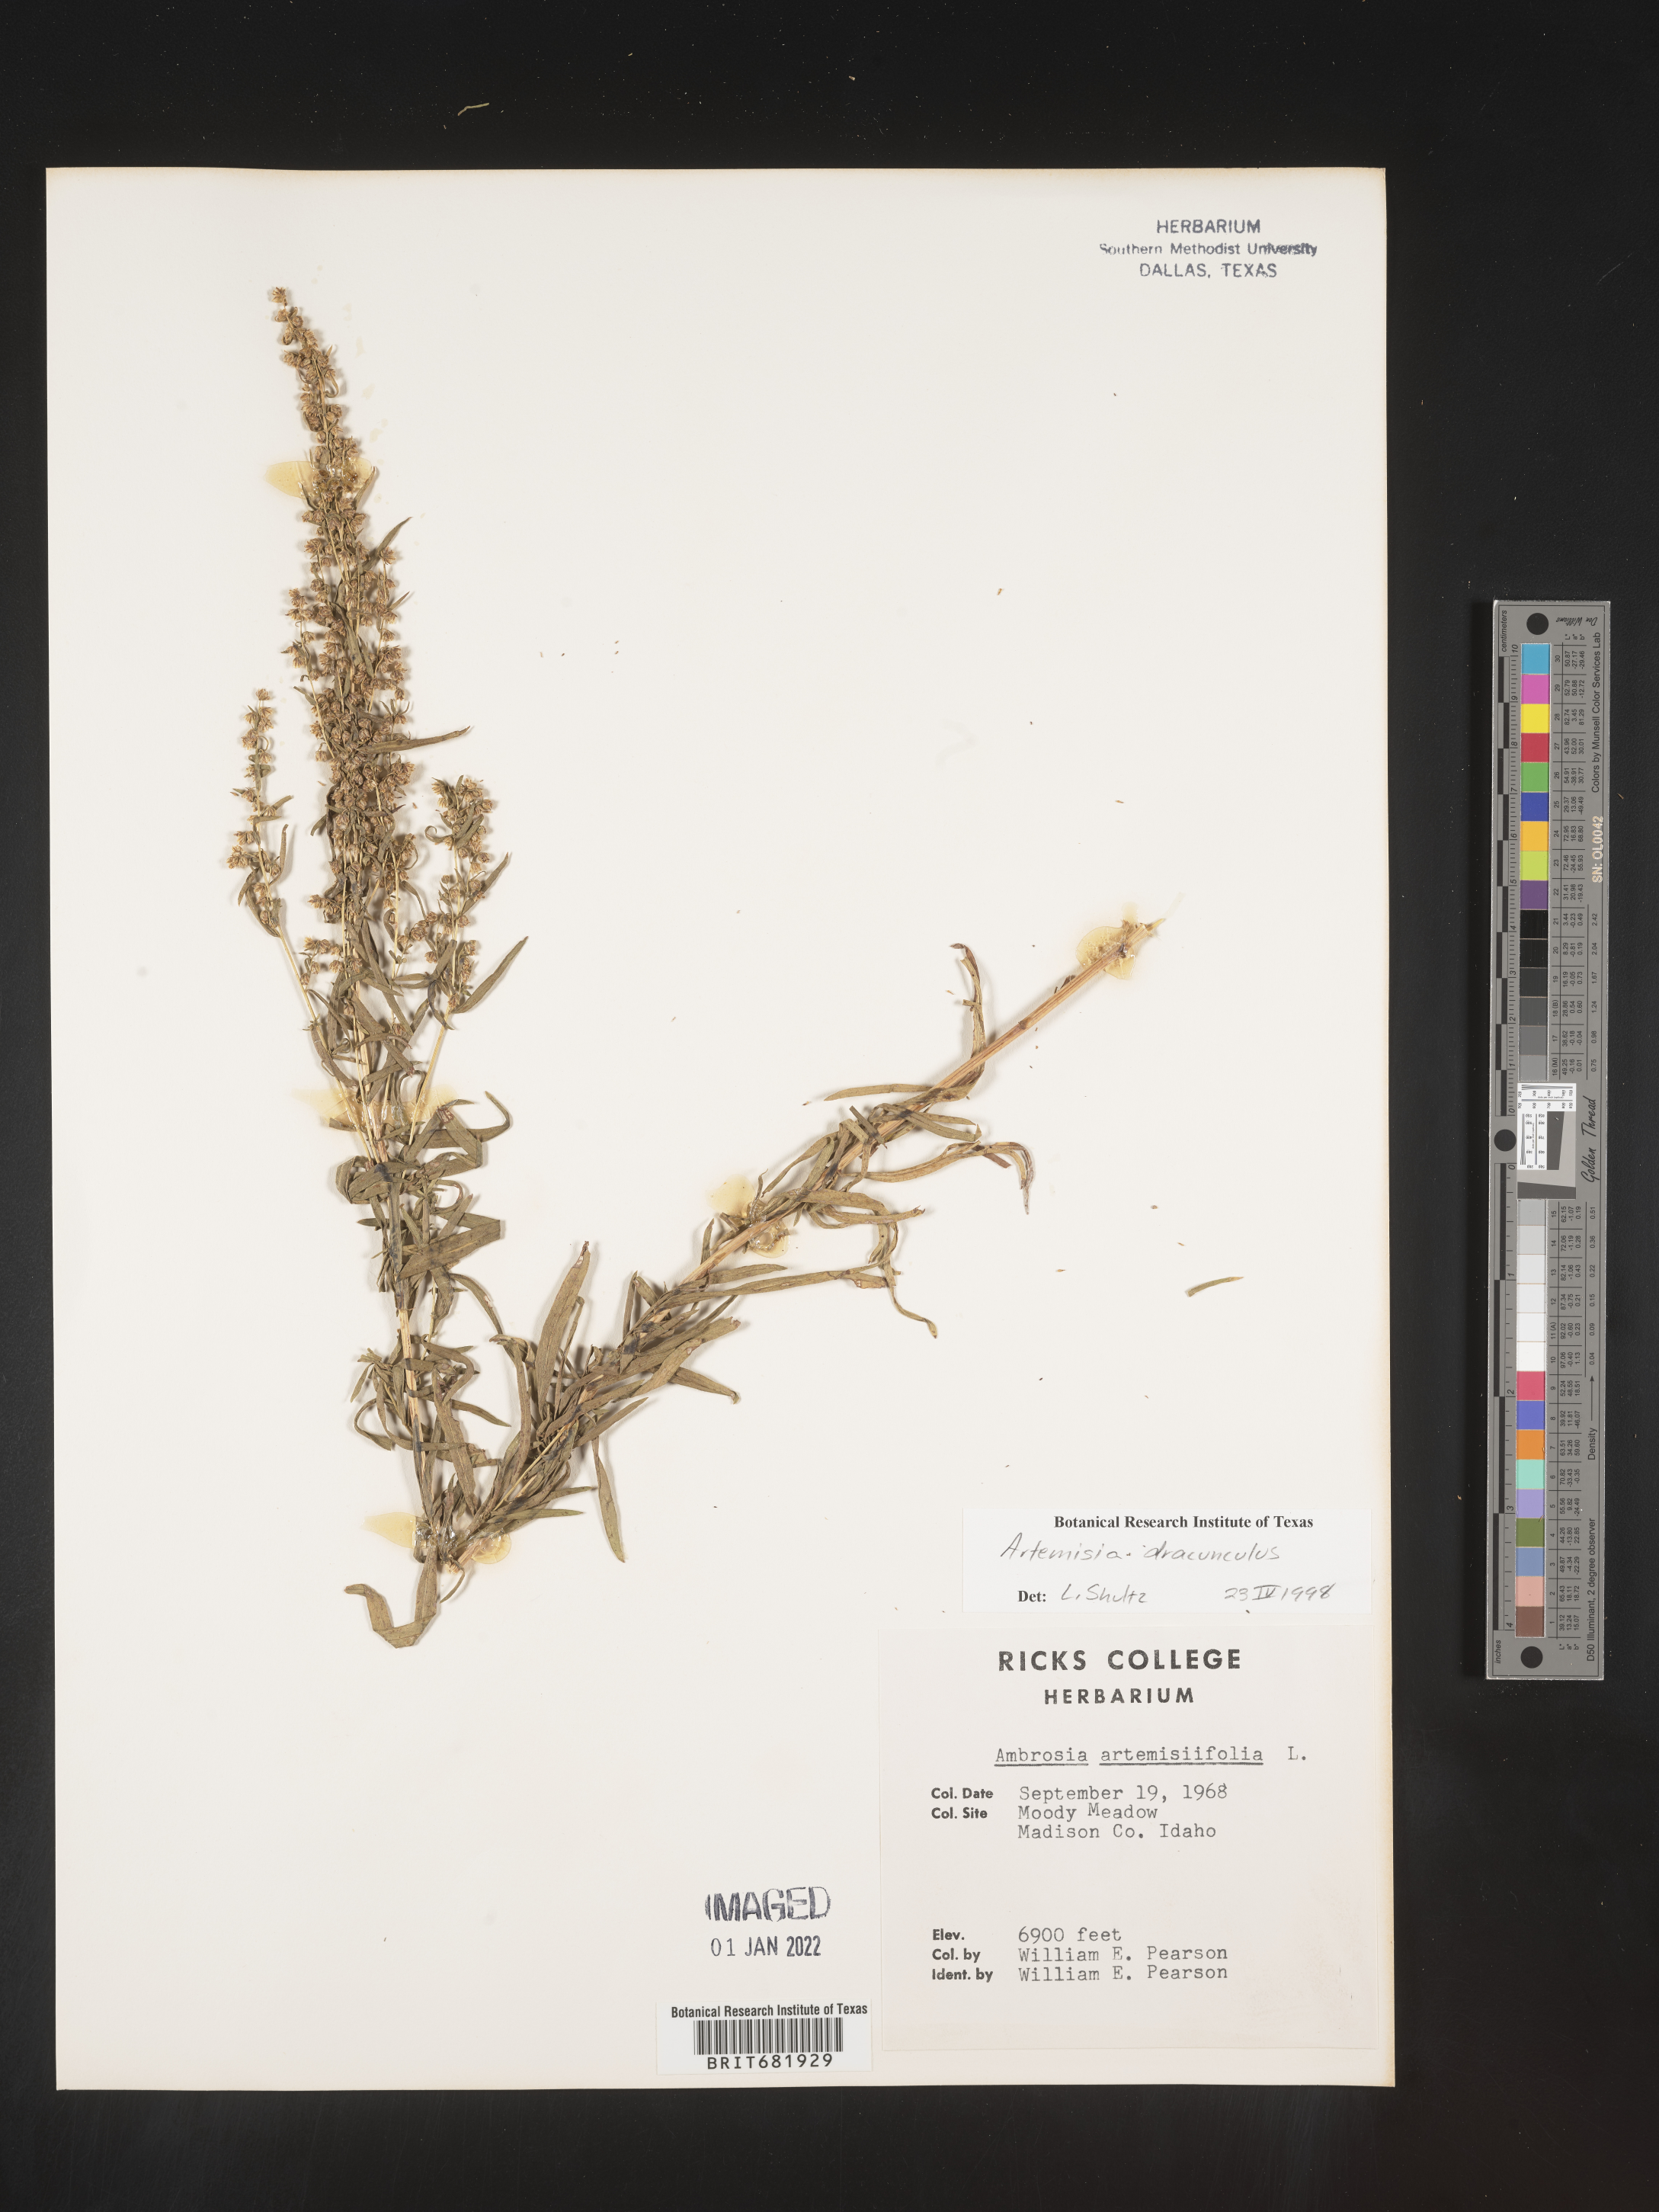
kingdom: Plantae
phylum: Tracheophyta
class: Magnoliopsida
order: Asterales
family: Asteraceae
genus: Artemisia
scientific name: Artemisia dracunculus
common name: Tarragon
